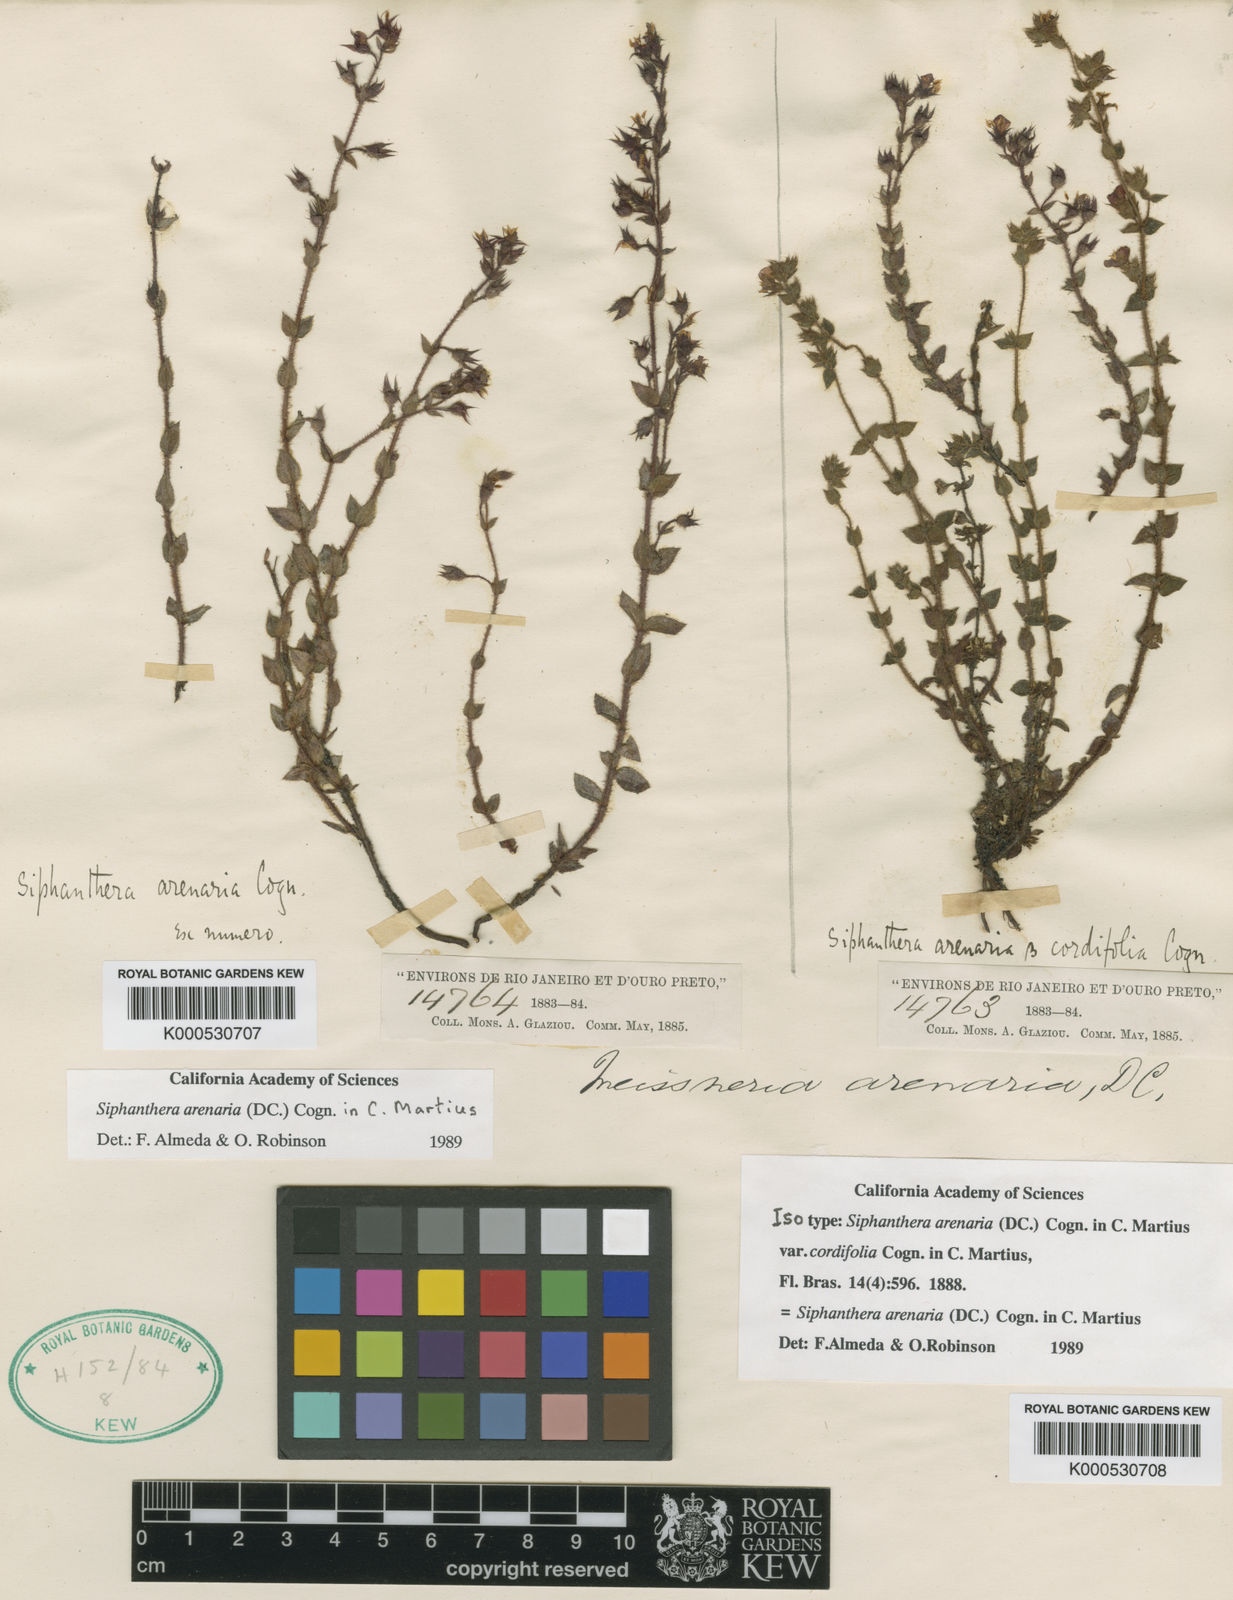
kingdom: Plantae
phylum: Tracheophyta
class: Magnoliopsida
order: Myrtales
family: Melastomataceae
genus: Siphanthera
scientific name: Siphanthera arenaria
